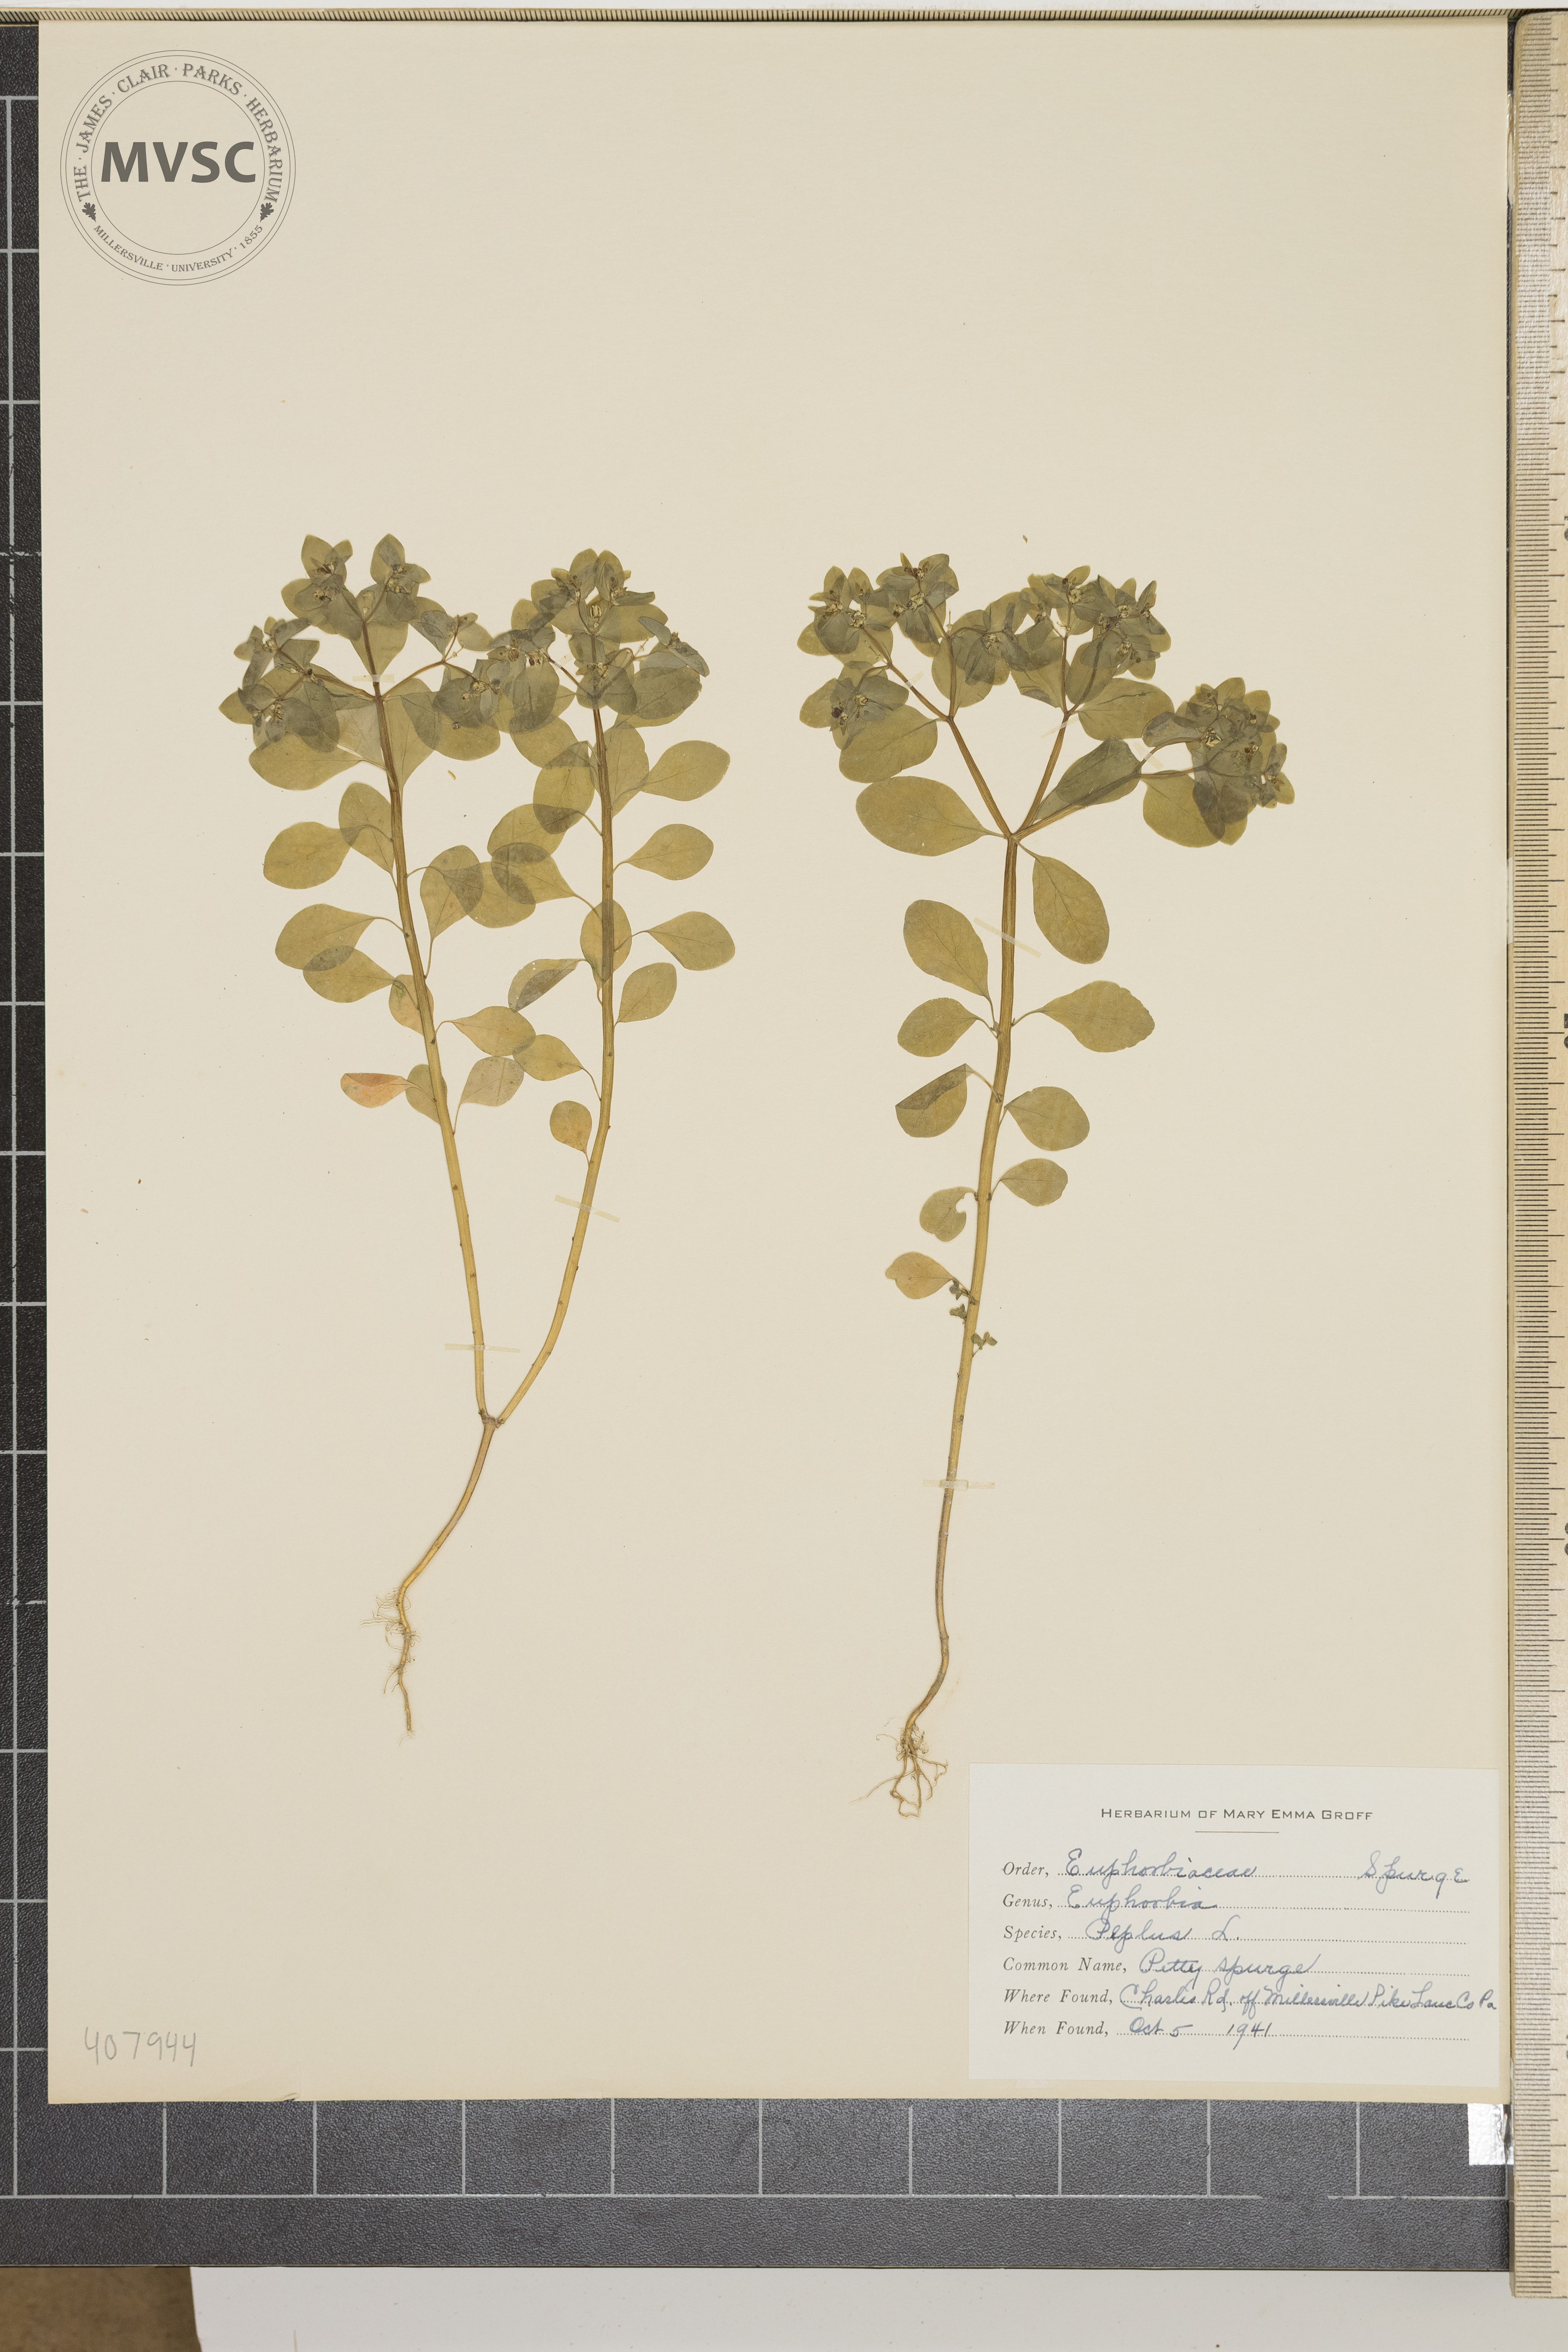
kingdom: Plantae
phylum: Tracheophyta
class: Magnoliopsida
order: Malpighiales
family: Euphorbiaceae
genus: Euphorbia
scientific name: Euphorbia peplus
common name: Petty Spurge
